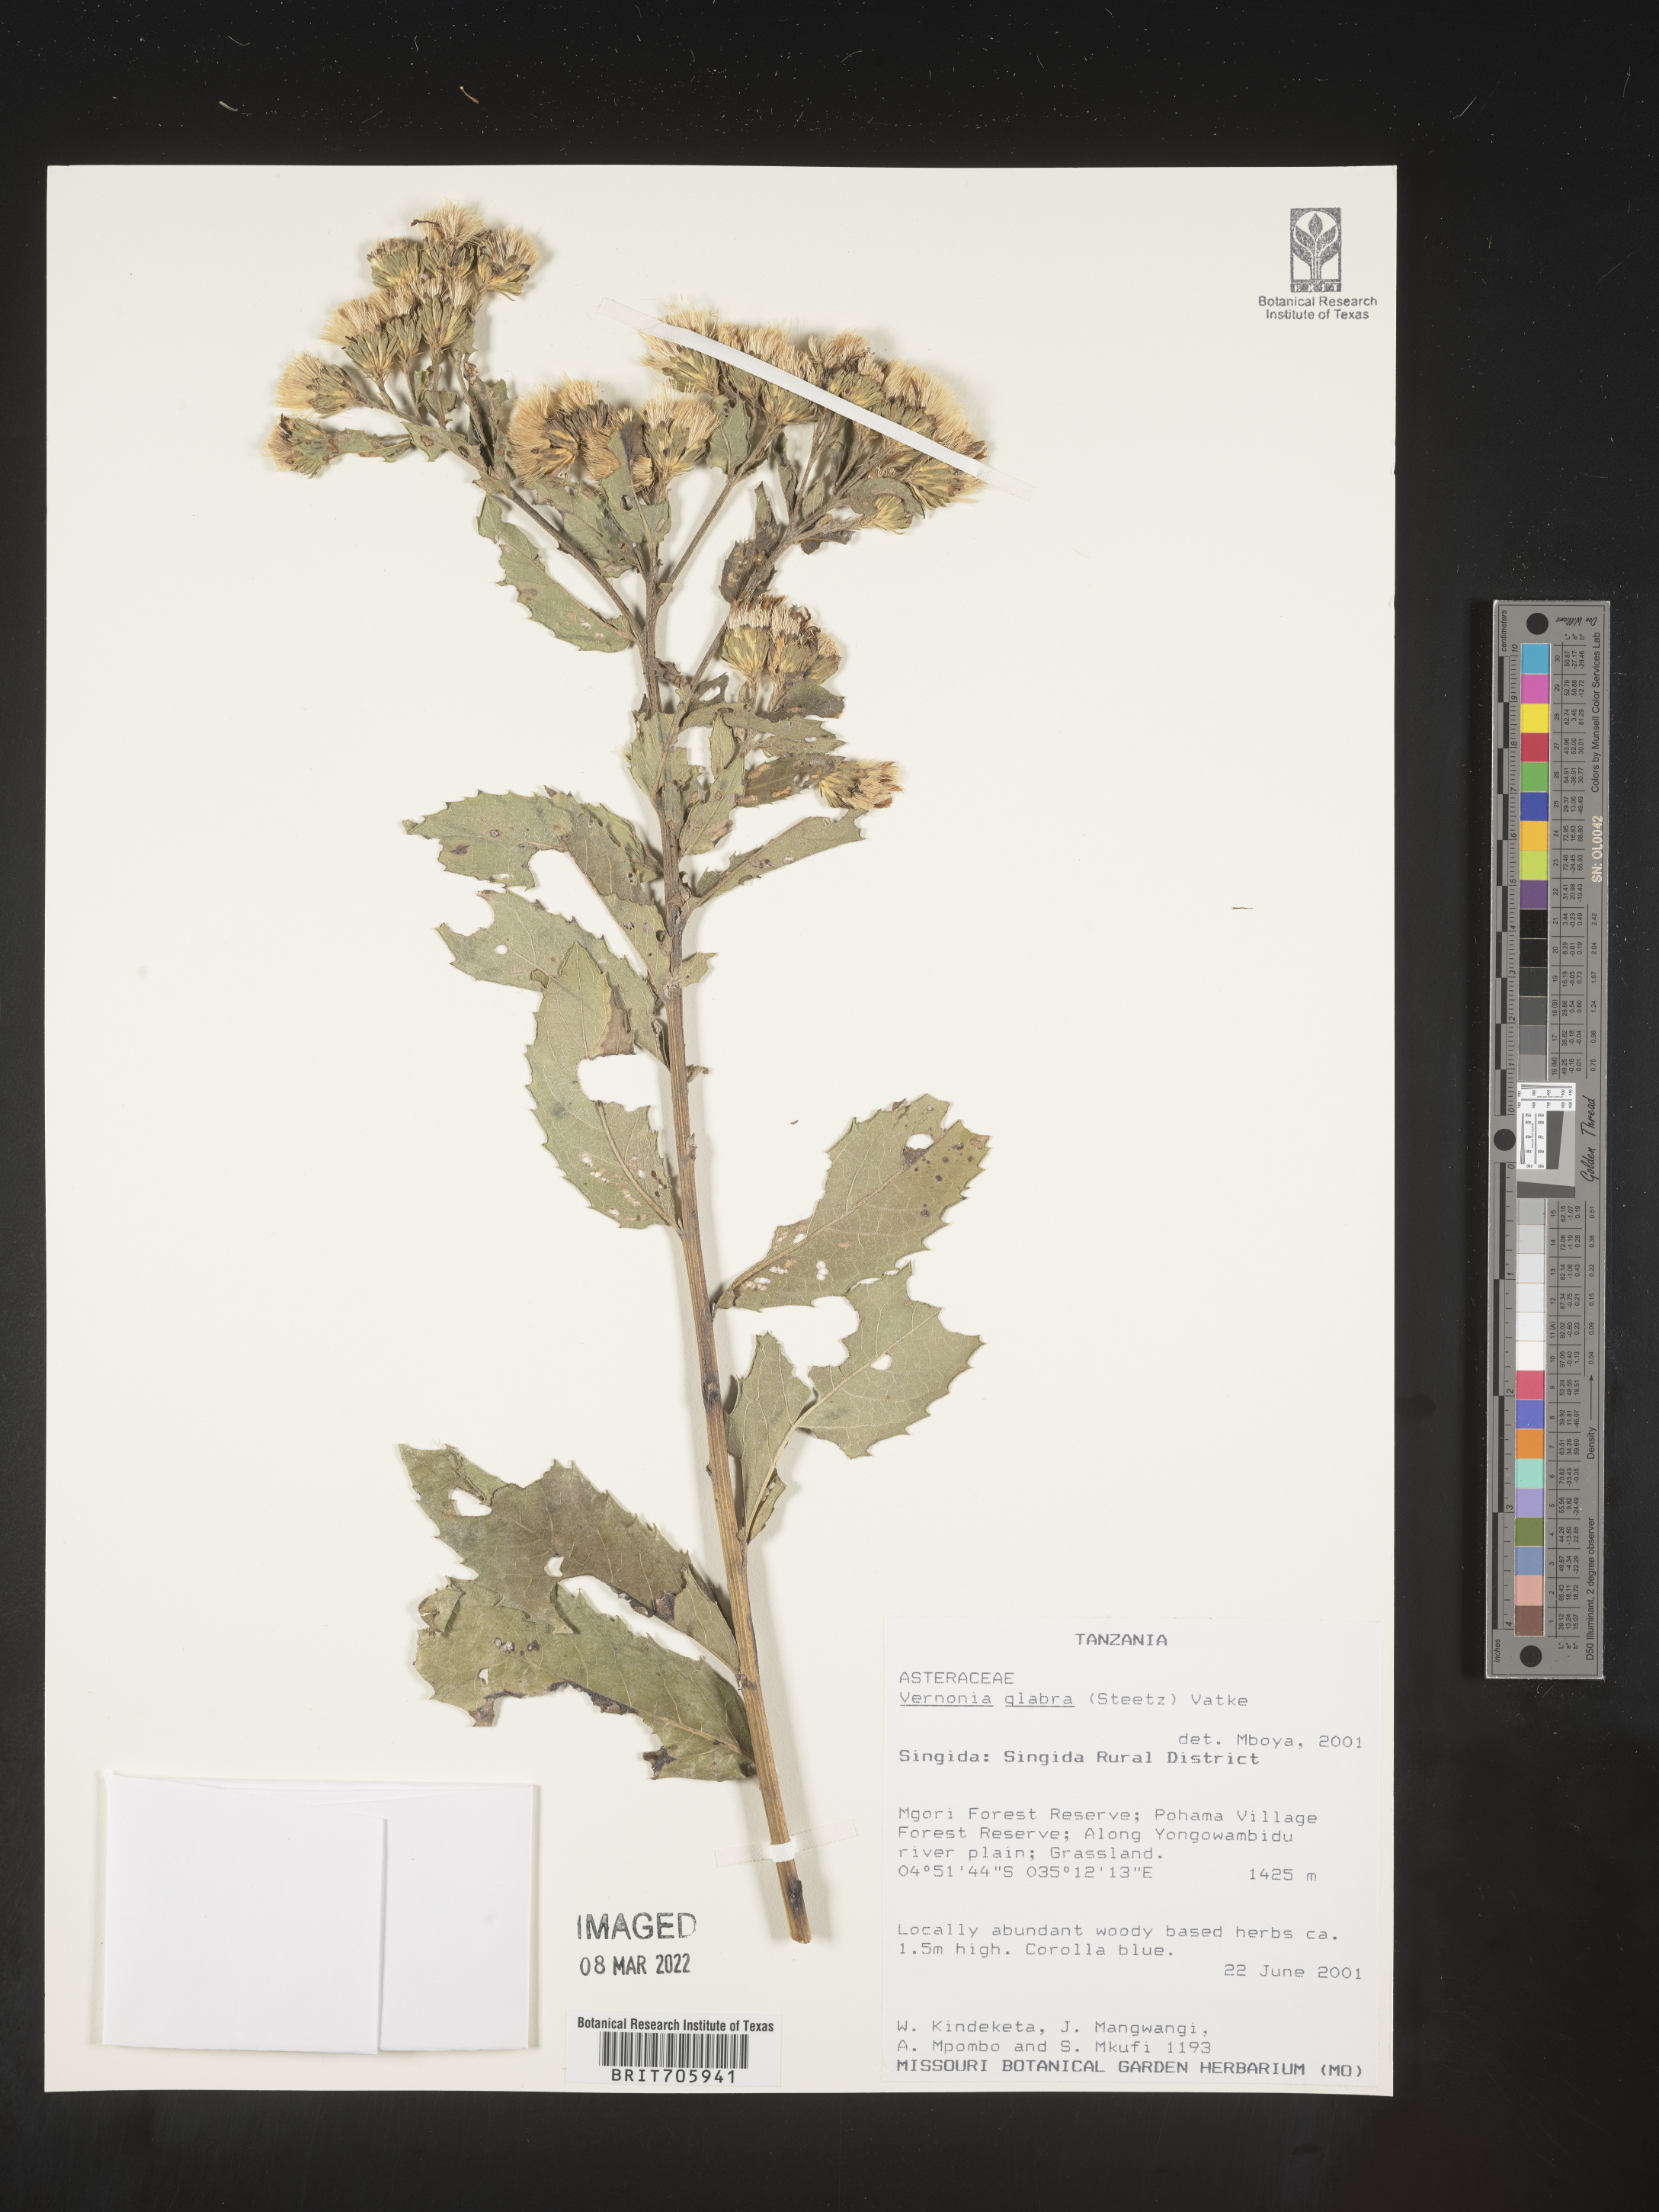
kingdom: Plantae
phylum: Tracheophyta
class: Magnoliopsida
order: Asterales
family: Asteraceae
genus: Vernonia
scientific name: Vernonia
